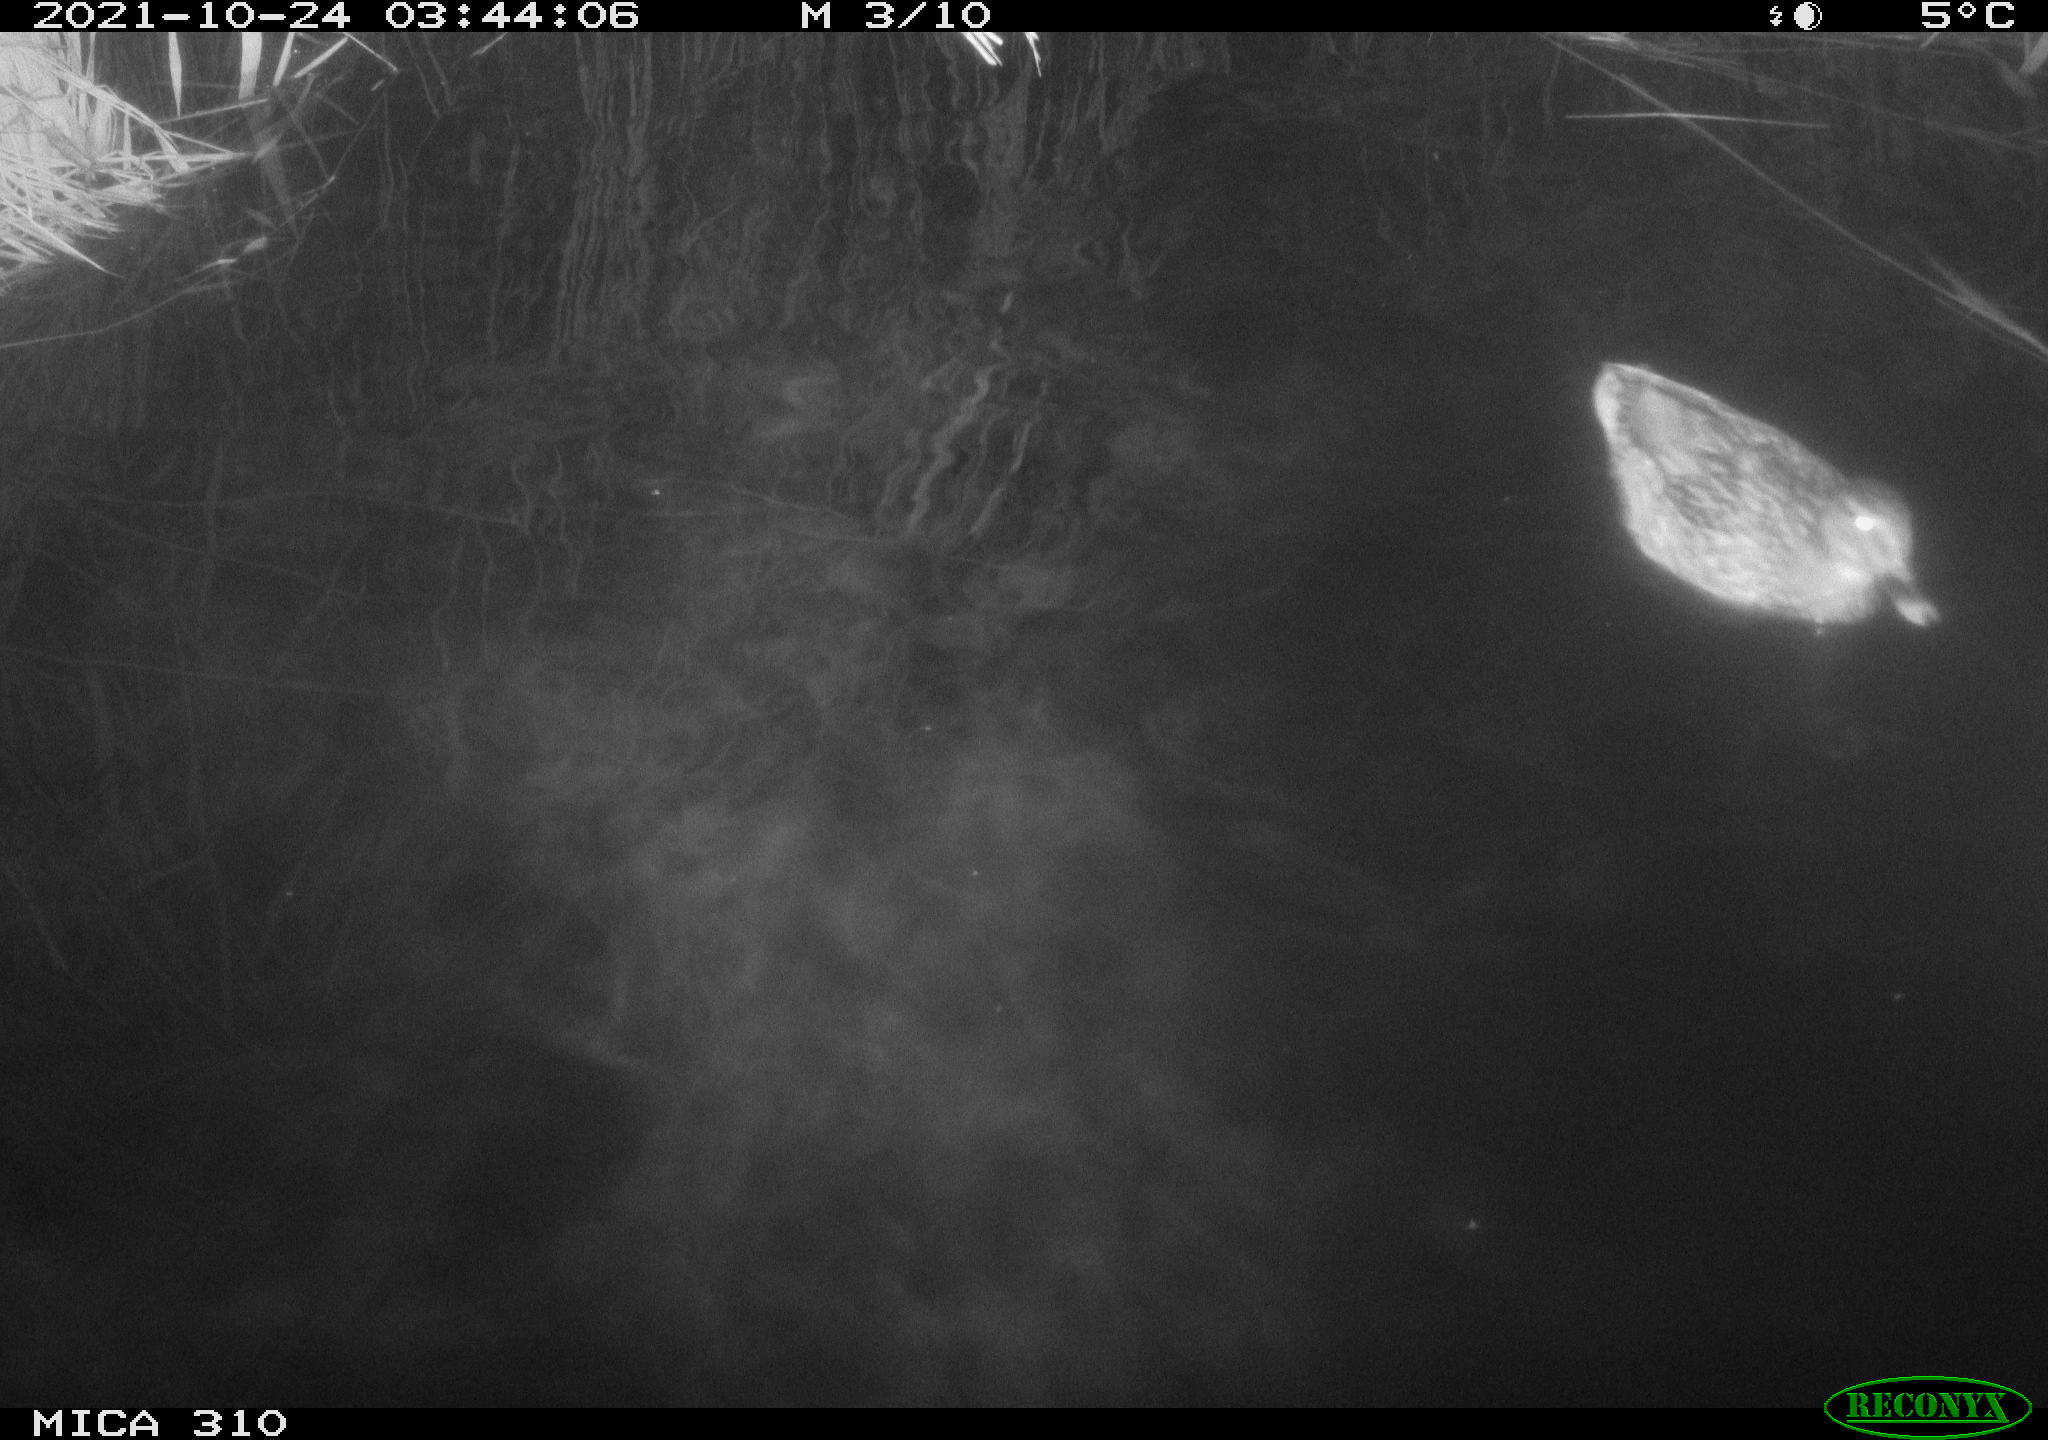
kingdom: Animalia
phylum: Chordata
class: Aves
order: Anseriformes
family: Anatidae
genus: Anas
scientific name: Anas platyrhynchos
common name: Mallard
